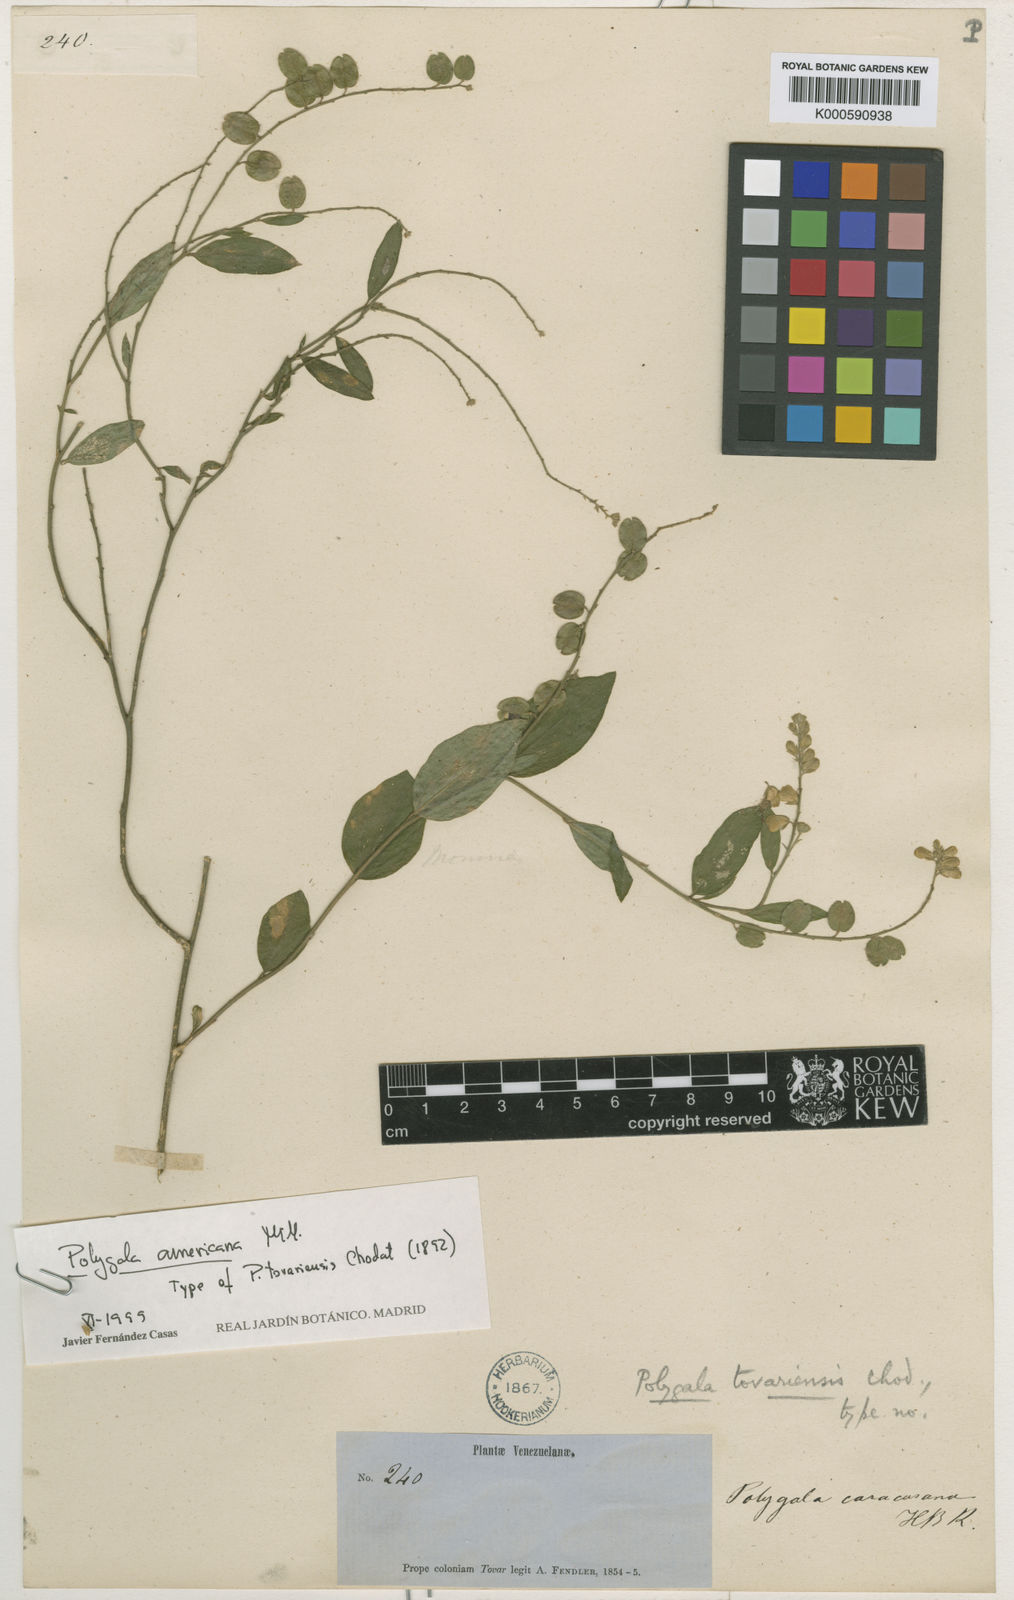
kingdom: Plantae
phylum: Tracheophyta
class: Magnoliopsida
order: Fabales
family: Polygalaceae
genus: Hebecarpa
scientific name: Hebecarpa americana
